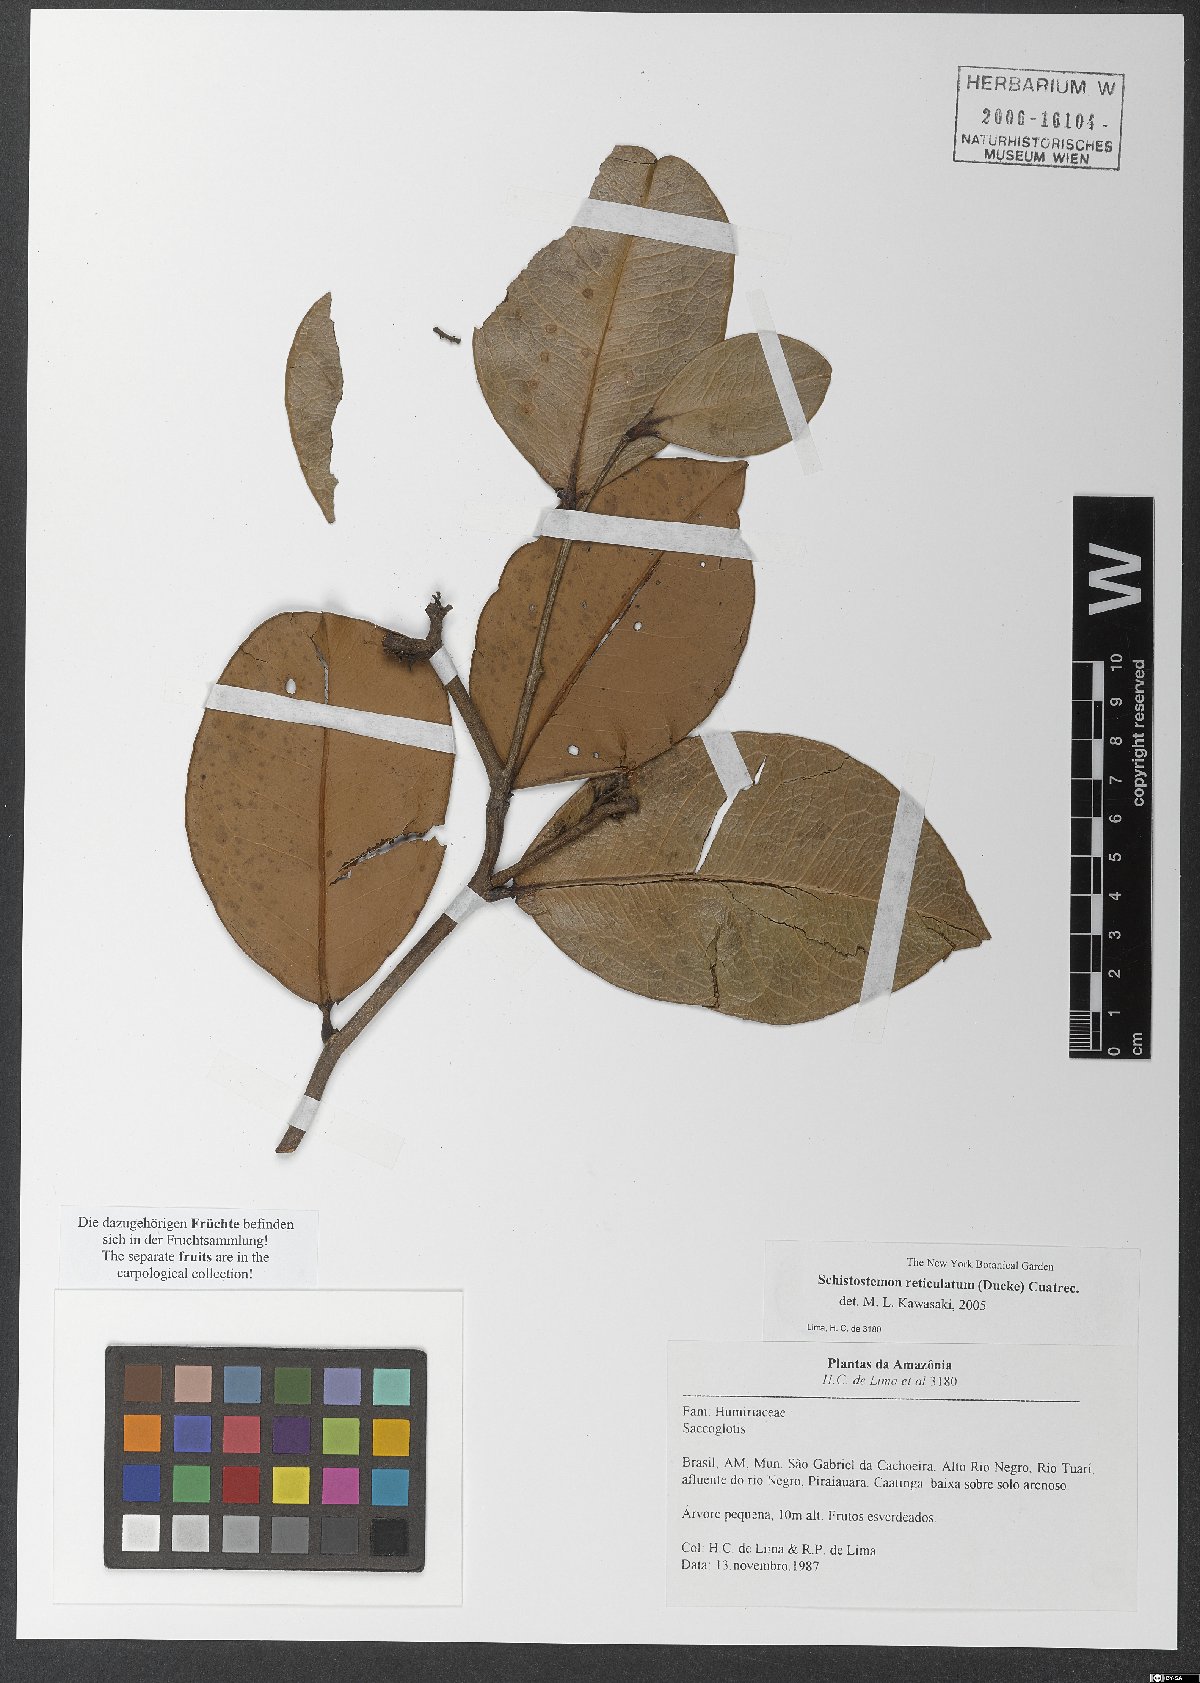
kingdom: Plantae
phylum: Tracheophyta
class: Magnoliopsida
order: Malpighiales
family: Humiriaceae
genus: Schistostemon
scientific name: Schistostemon reticulatum
